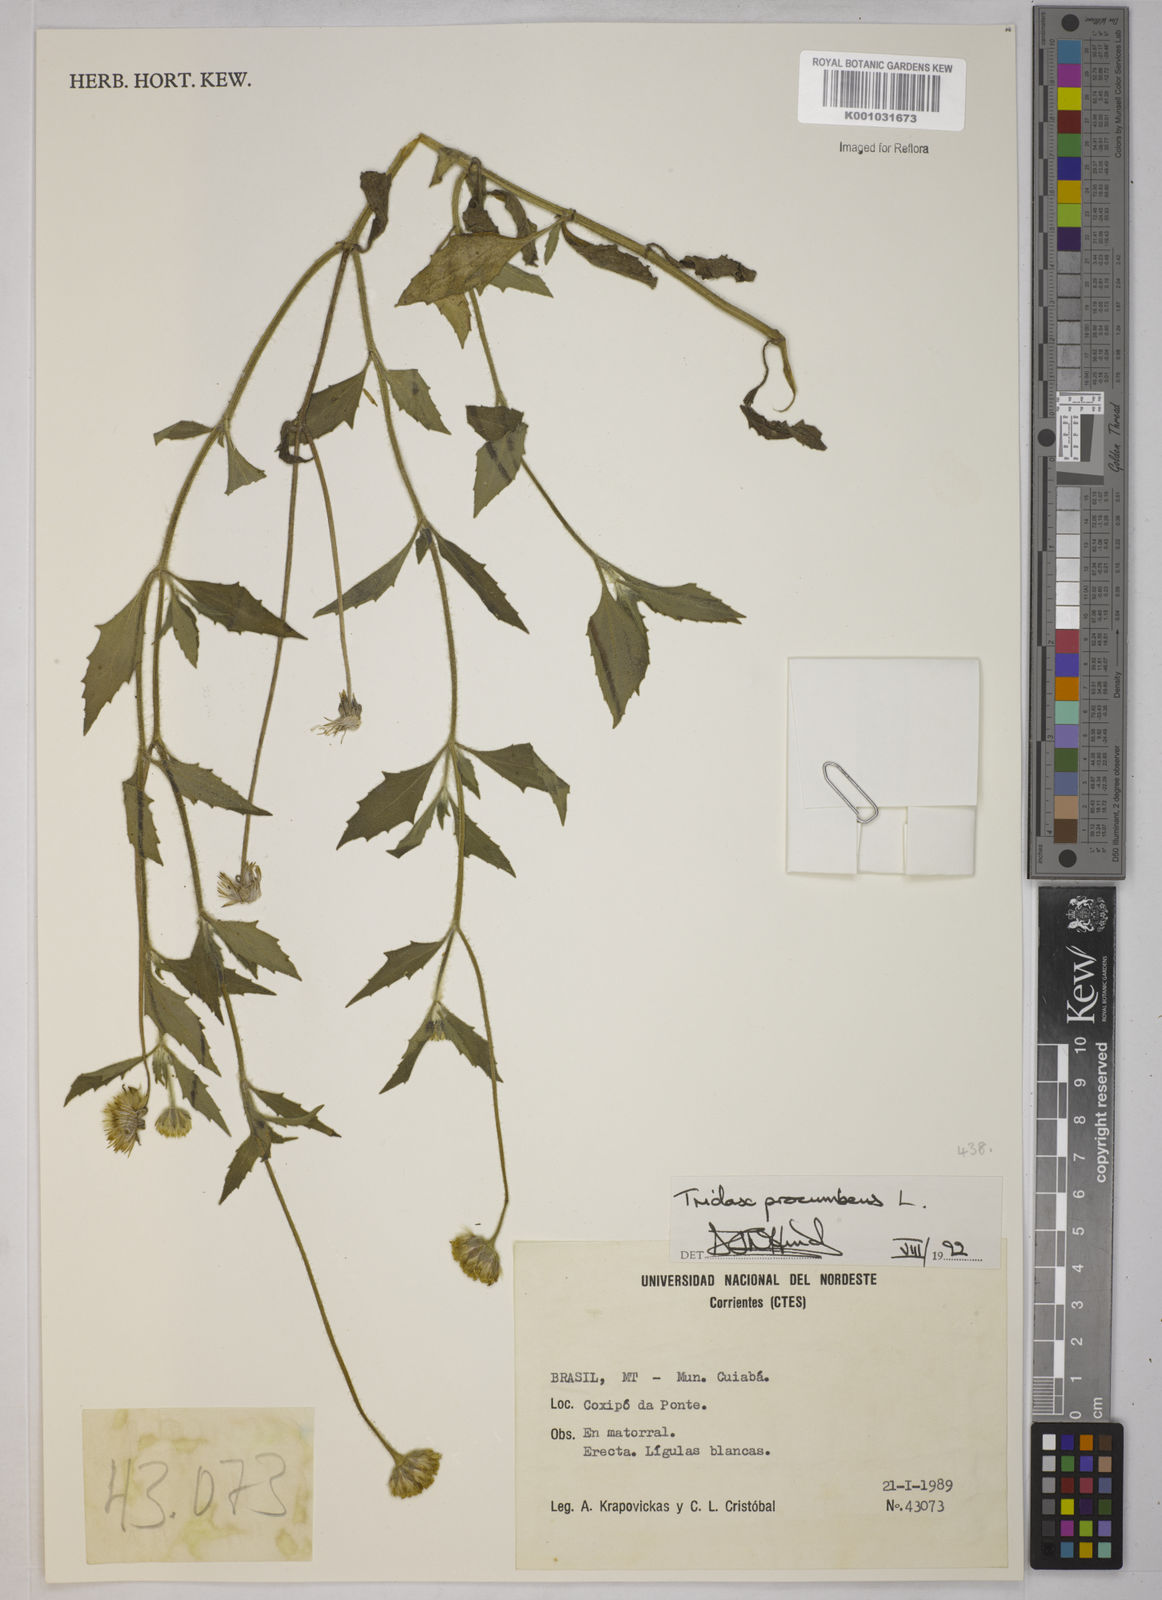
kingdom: Plantae
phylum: Tracheophyta
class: Magnoliopsida
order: Asterales
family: Asteraceae
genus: Tridax
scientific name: Tridax procumbens
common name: Coatbuttons
